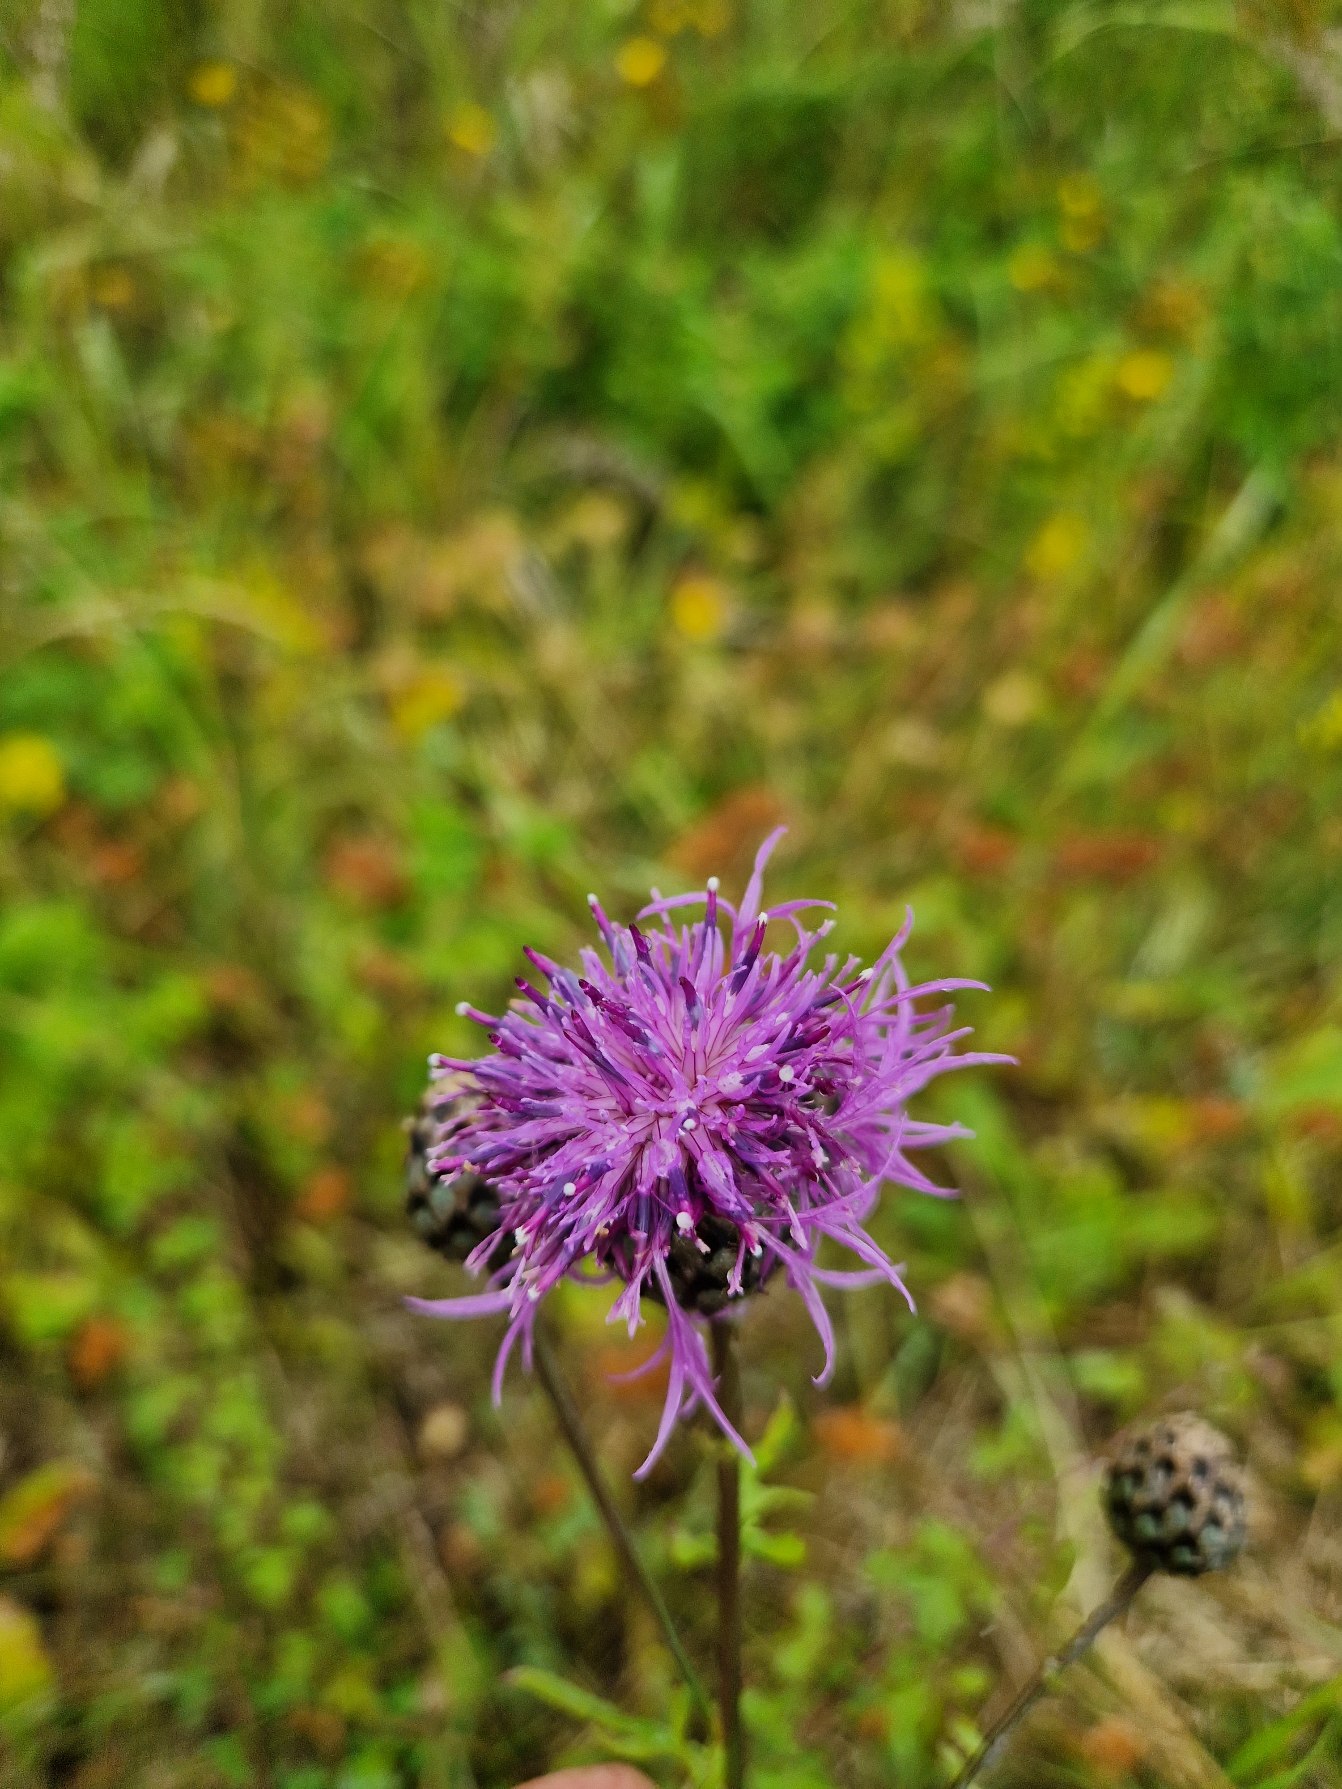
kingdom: Plantae
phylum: Tracheophyta
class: Magnoliopsida
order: Asterales
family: Asteraceae
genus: Centaurea
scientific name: Centaurea scabiosa
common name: Stor knopurt
